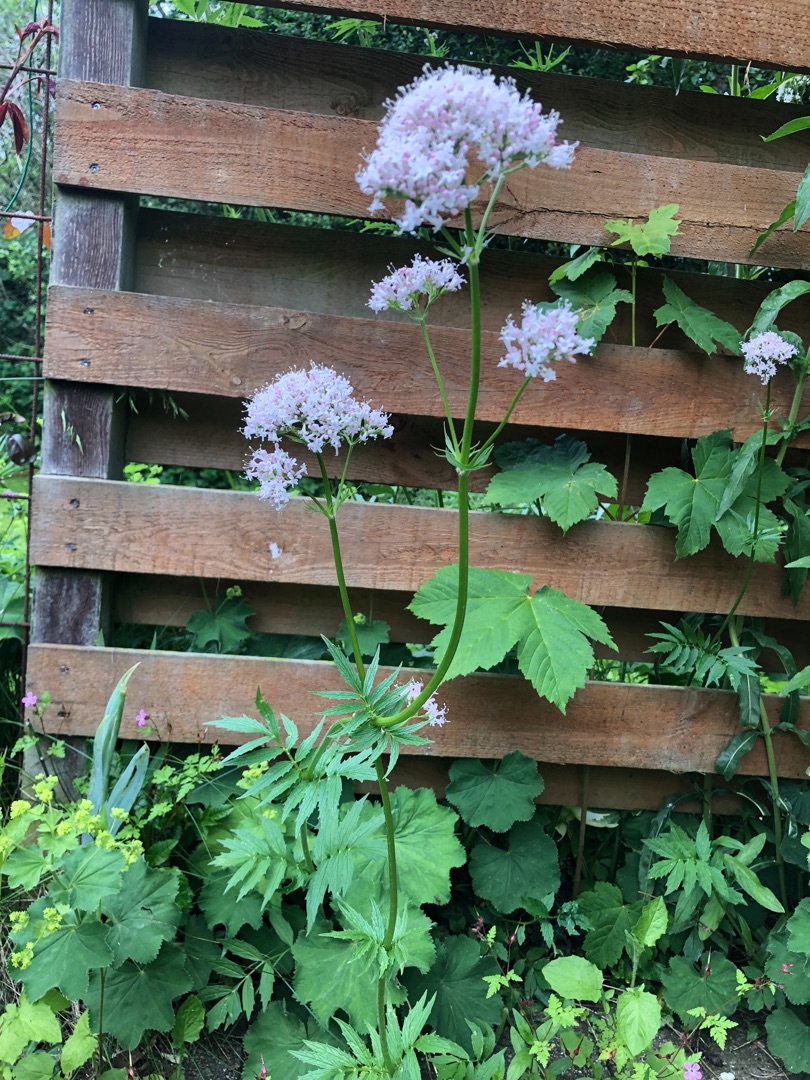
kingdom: Plantae
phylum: Tracheophyta
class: Magnoliopsida
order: Dipsacales
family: Caprifoliaceae
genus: Valeriana
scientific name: Valeriana sambucifolia
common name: Hyldebladet baldrian
